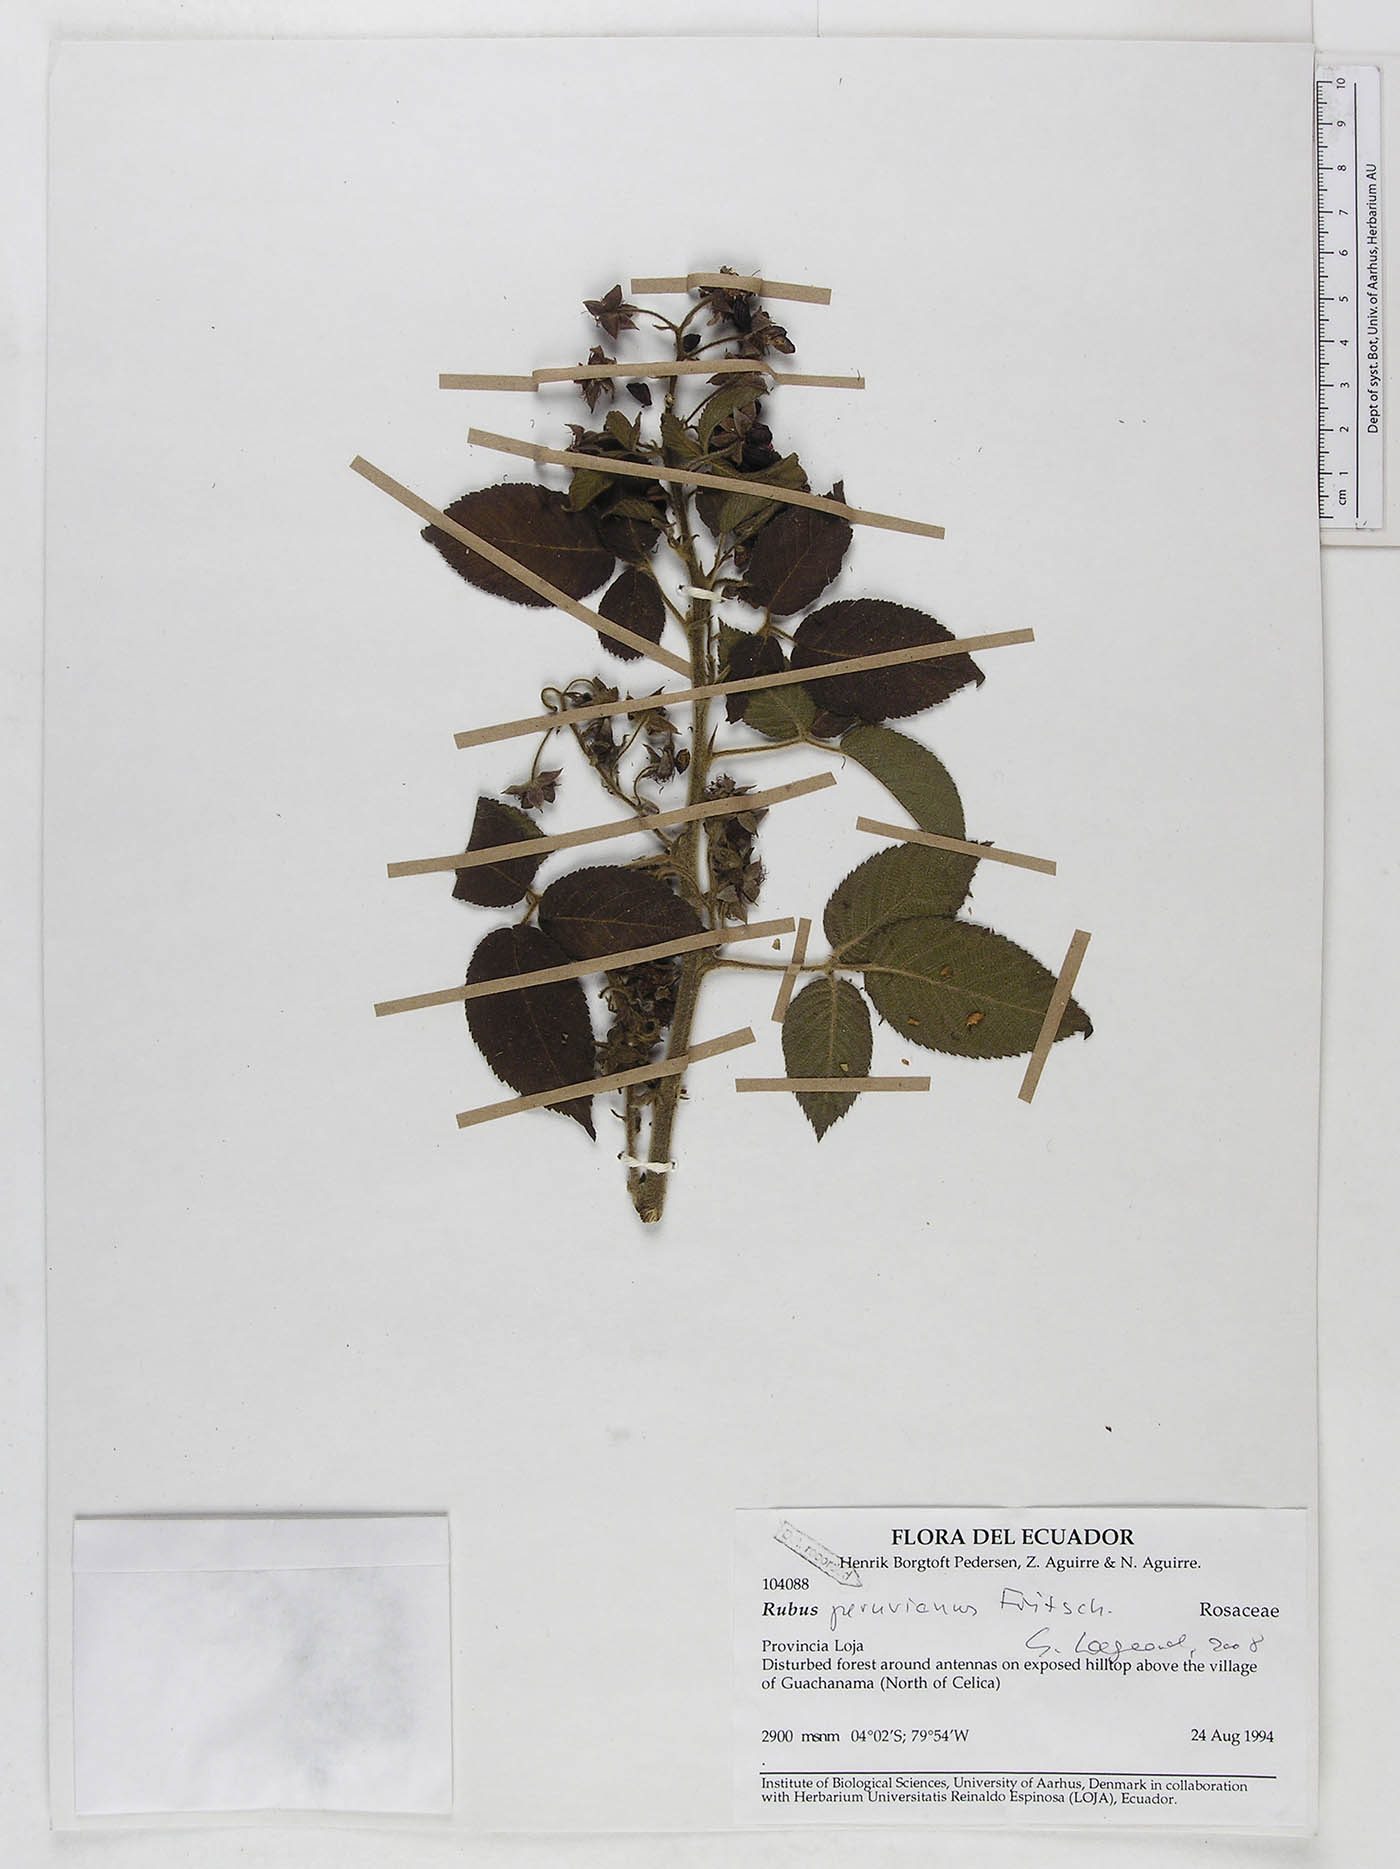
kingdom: Plantae
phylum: Tracheophyta
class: Magnoliopsida
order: Rosales
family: Rosaceae
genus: Rubus
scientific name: Rubus peruvianus
